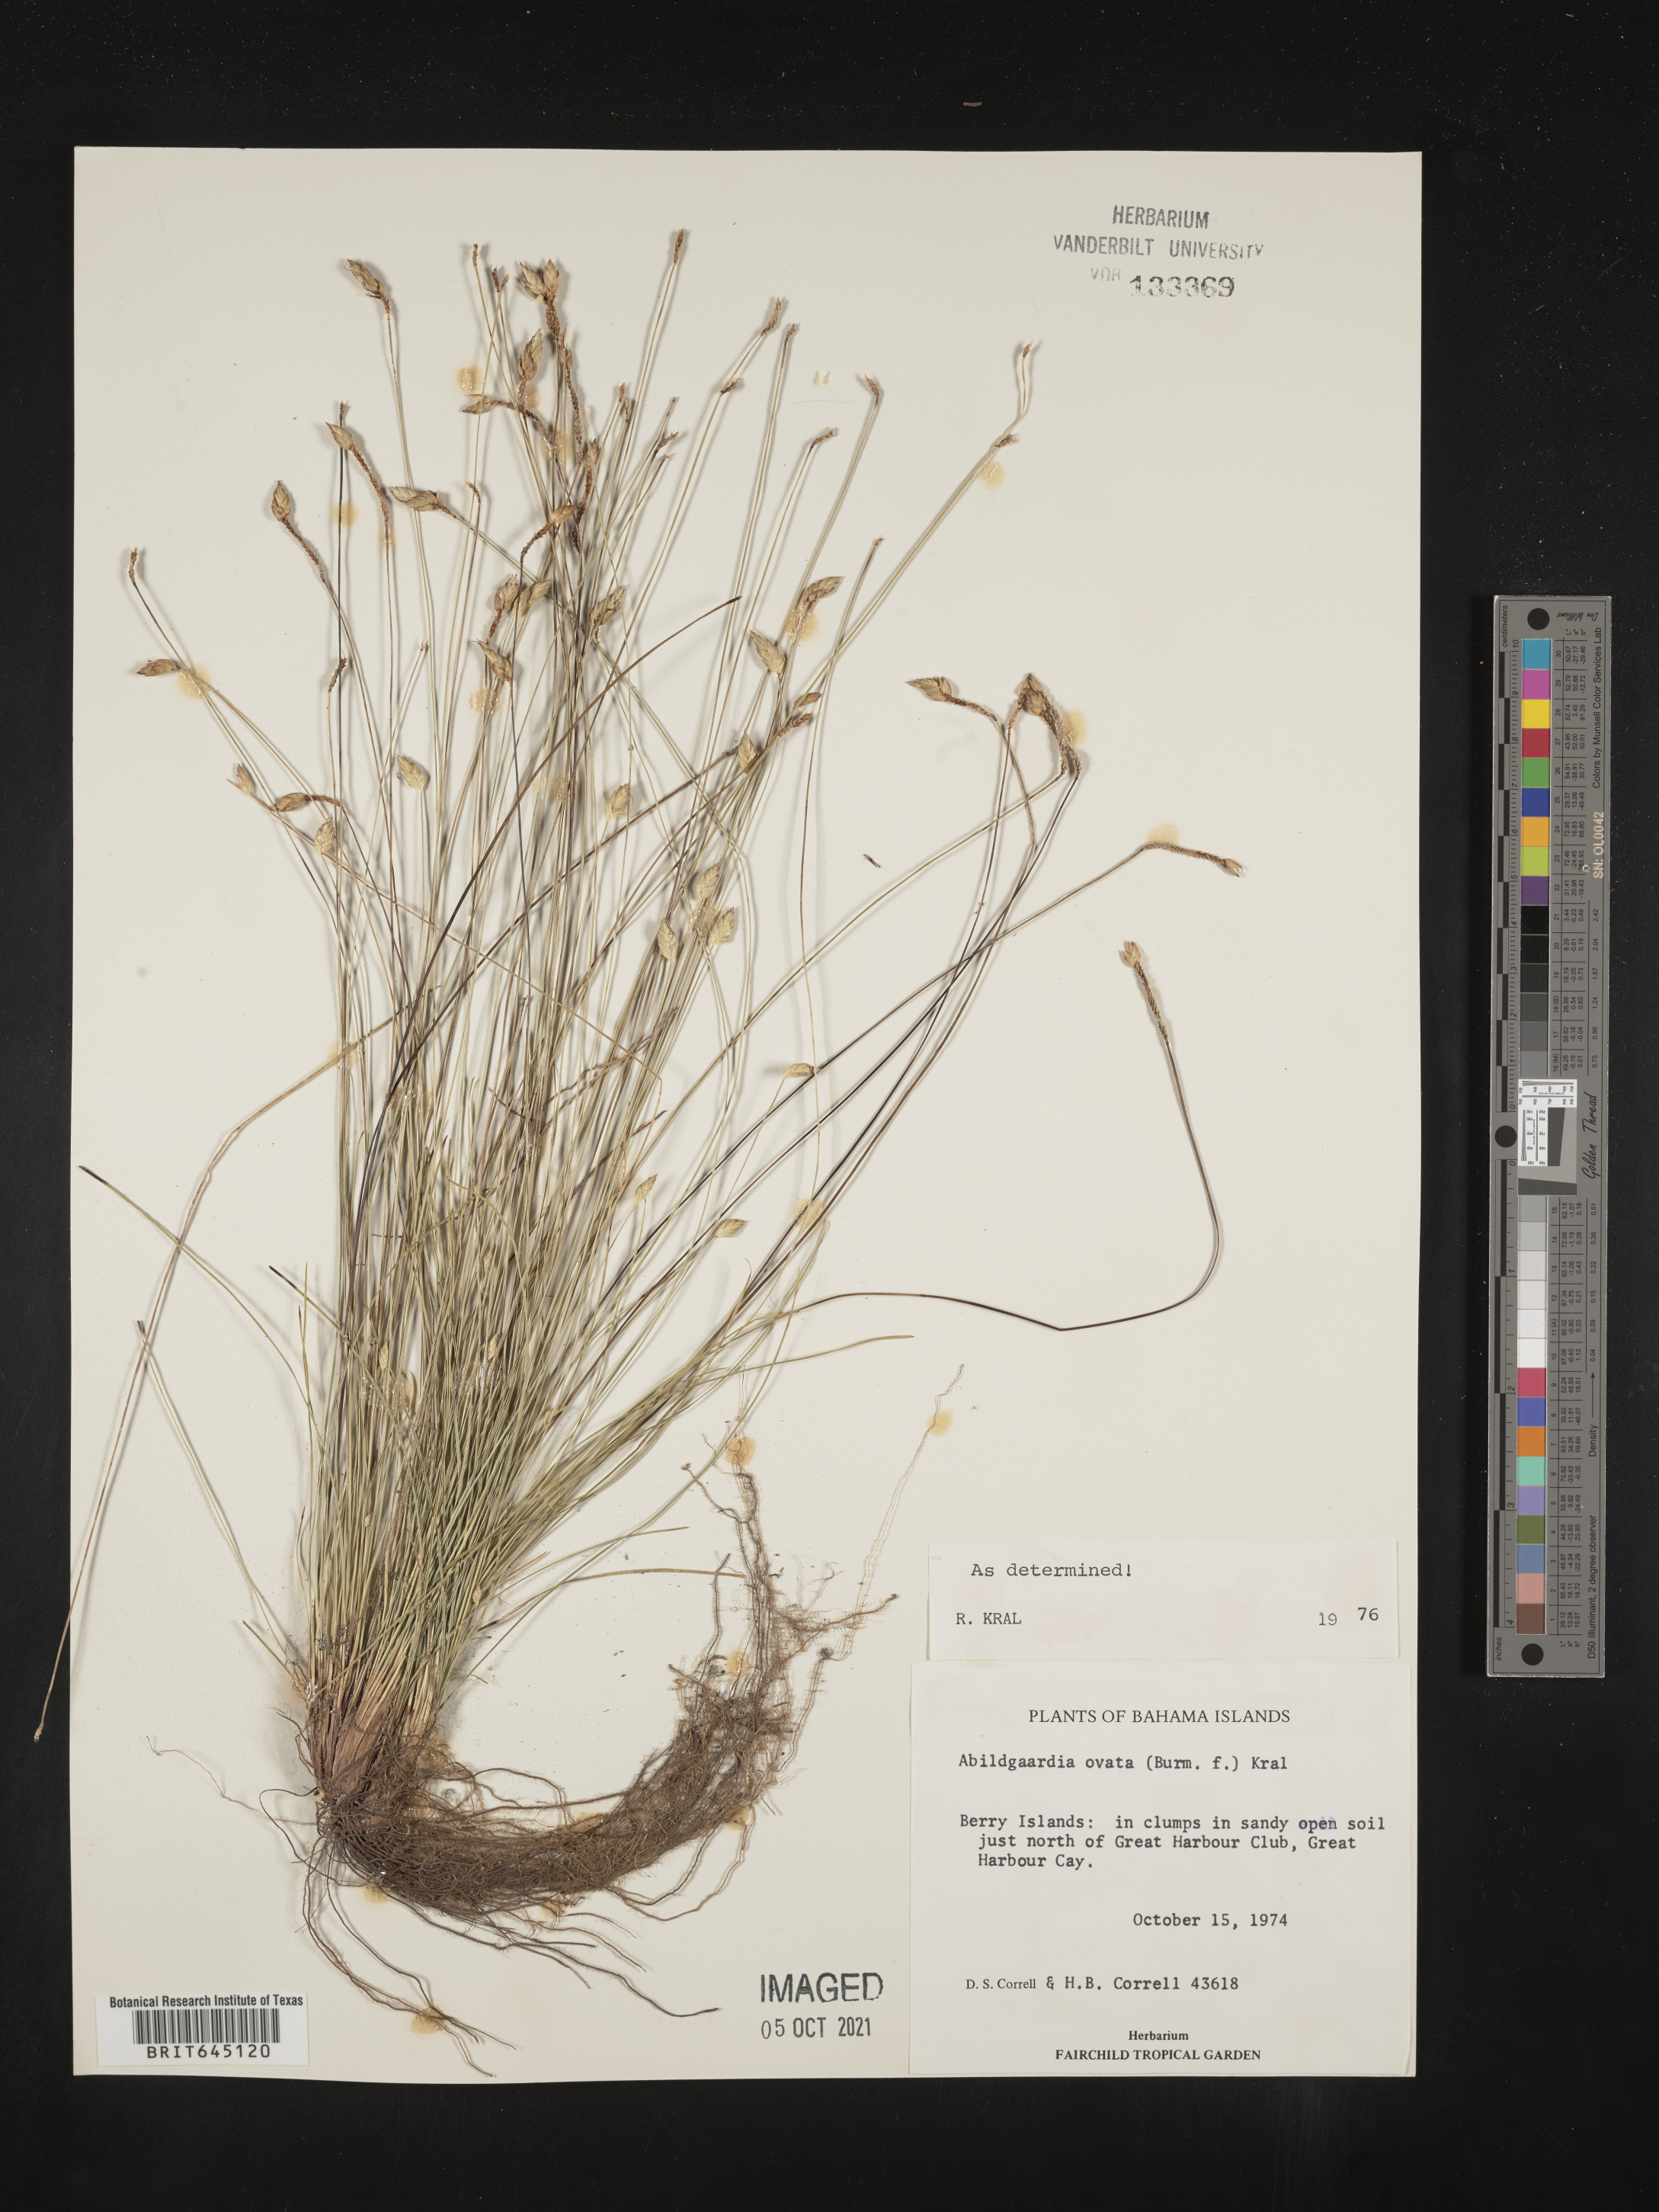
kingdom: Plantae
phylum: Tracheophyta
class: Liliopsida
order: Poales
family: Cyperaceae
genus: Abildgaardia
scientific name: Abildgaardia ovata
